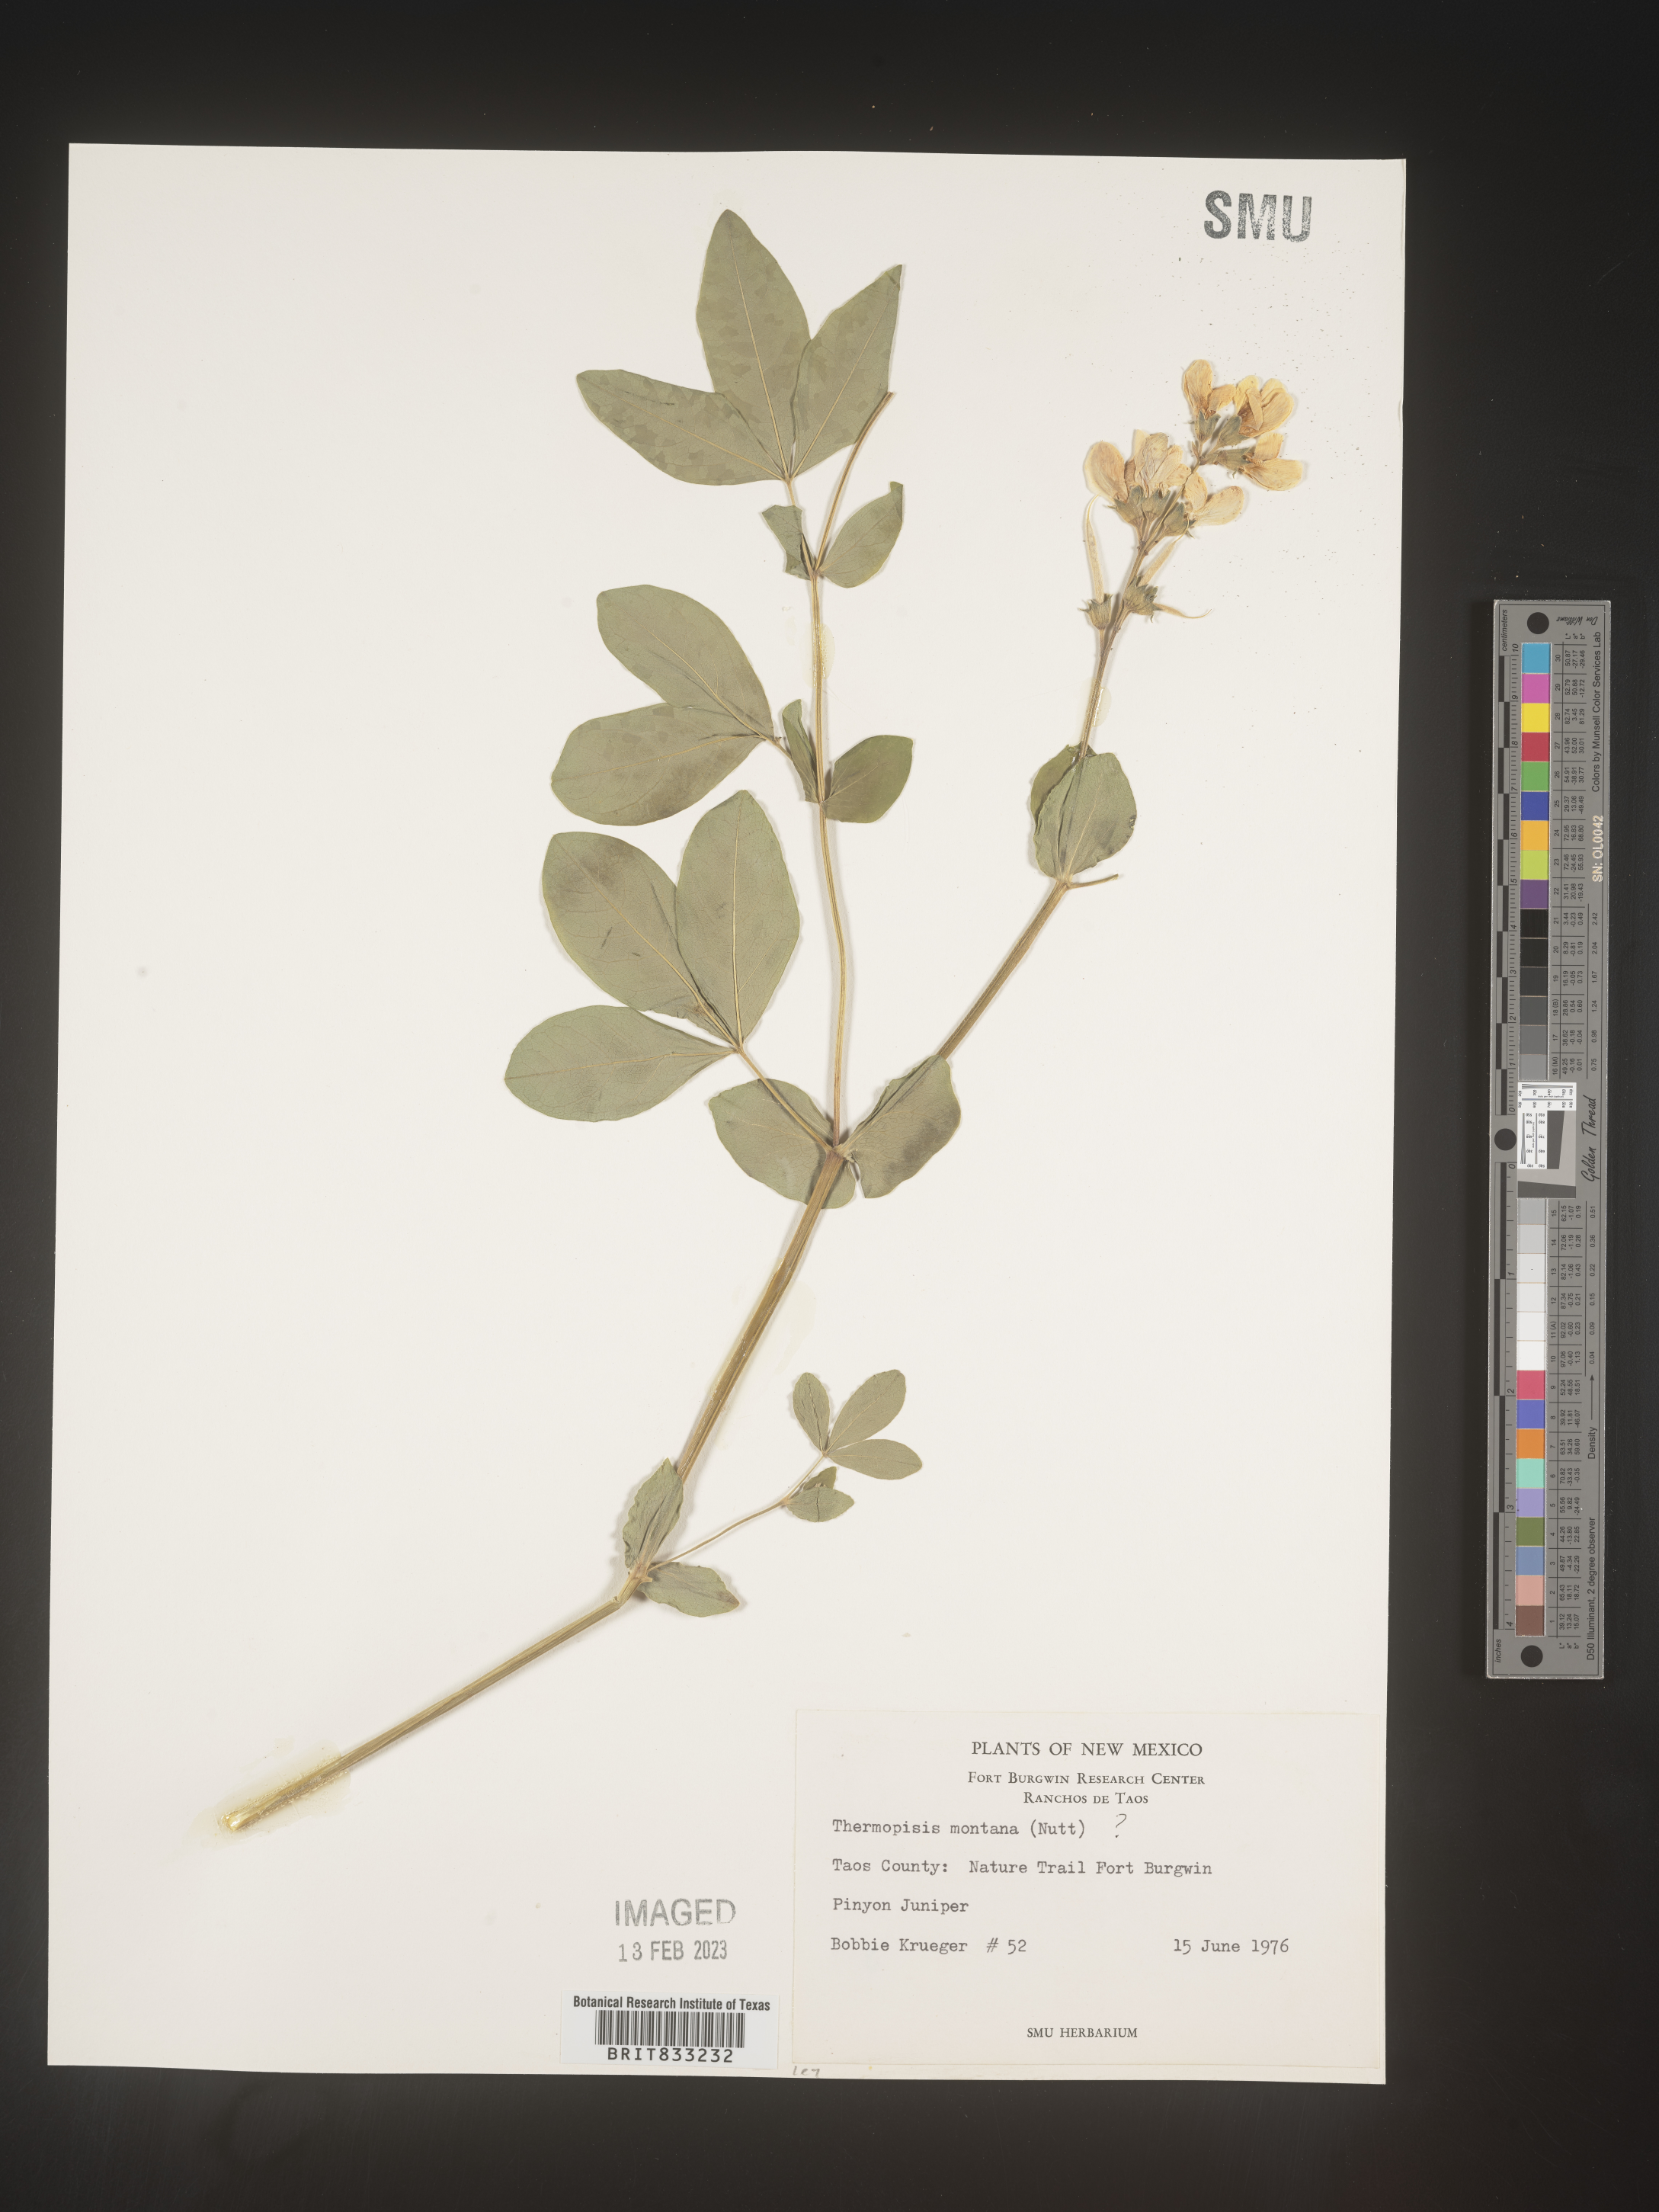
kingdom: Plantae
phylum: Tracheophyta
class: Magnoliopsida
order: Fabales
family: Fabaceae
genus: Thermopsis
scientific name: Thermopsis montana
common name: False lupin
